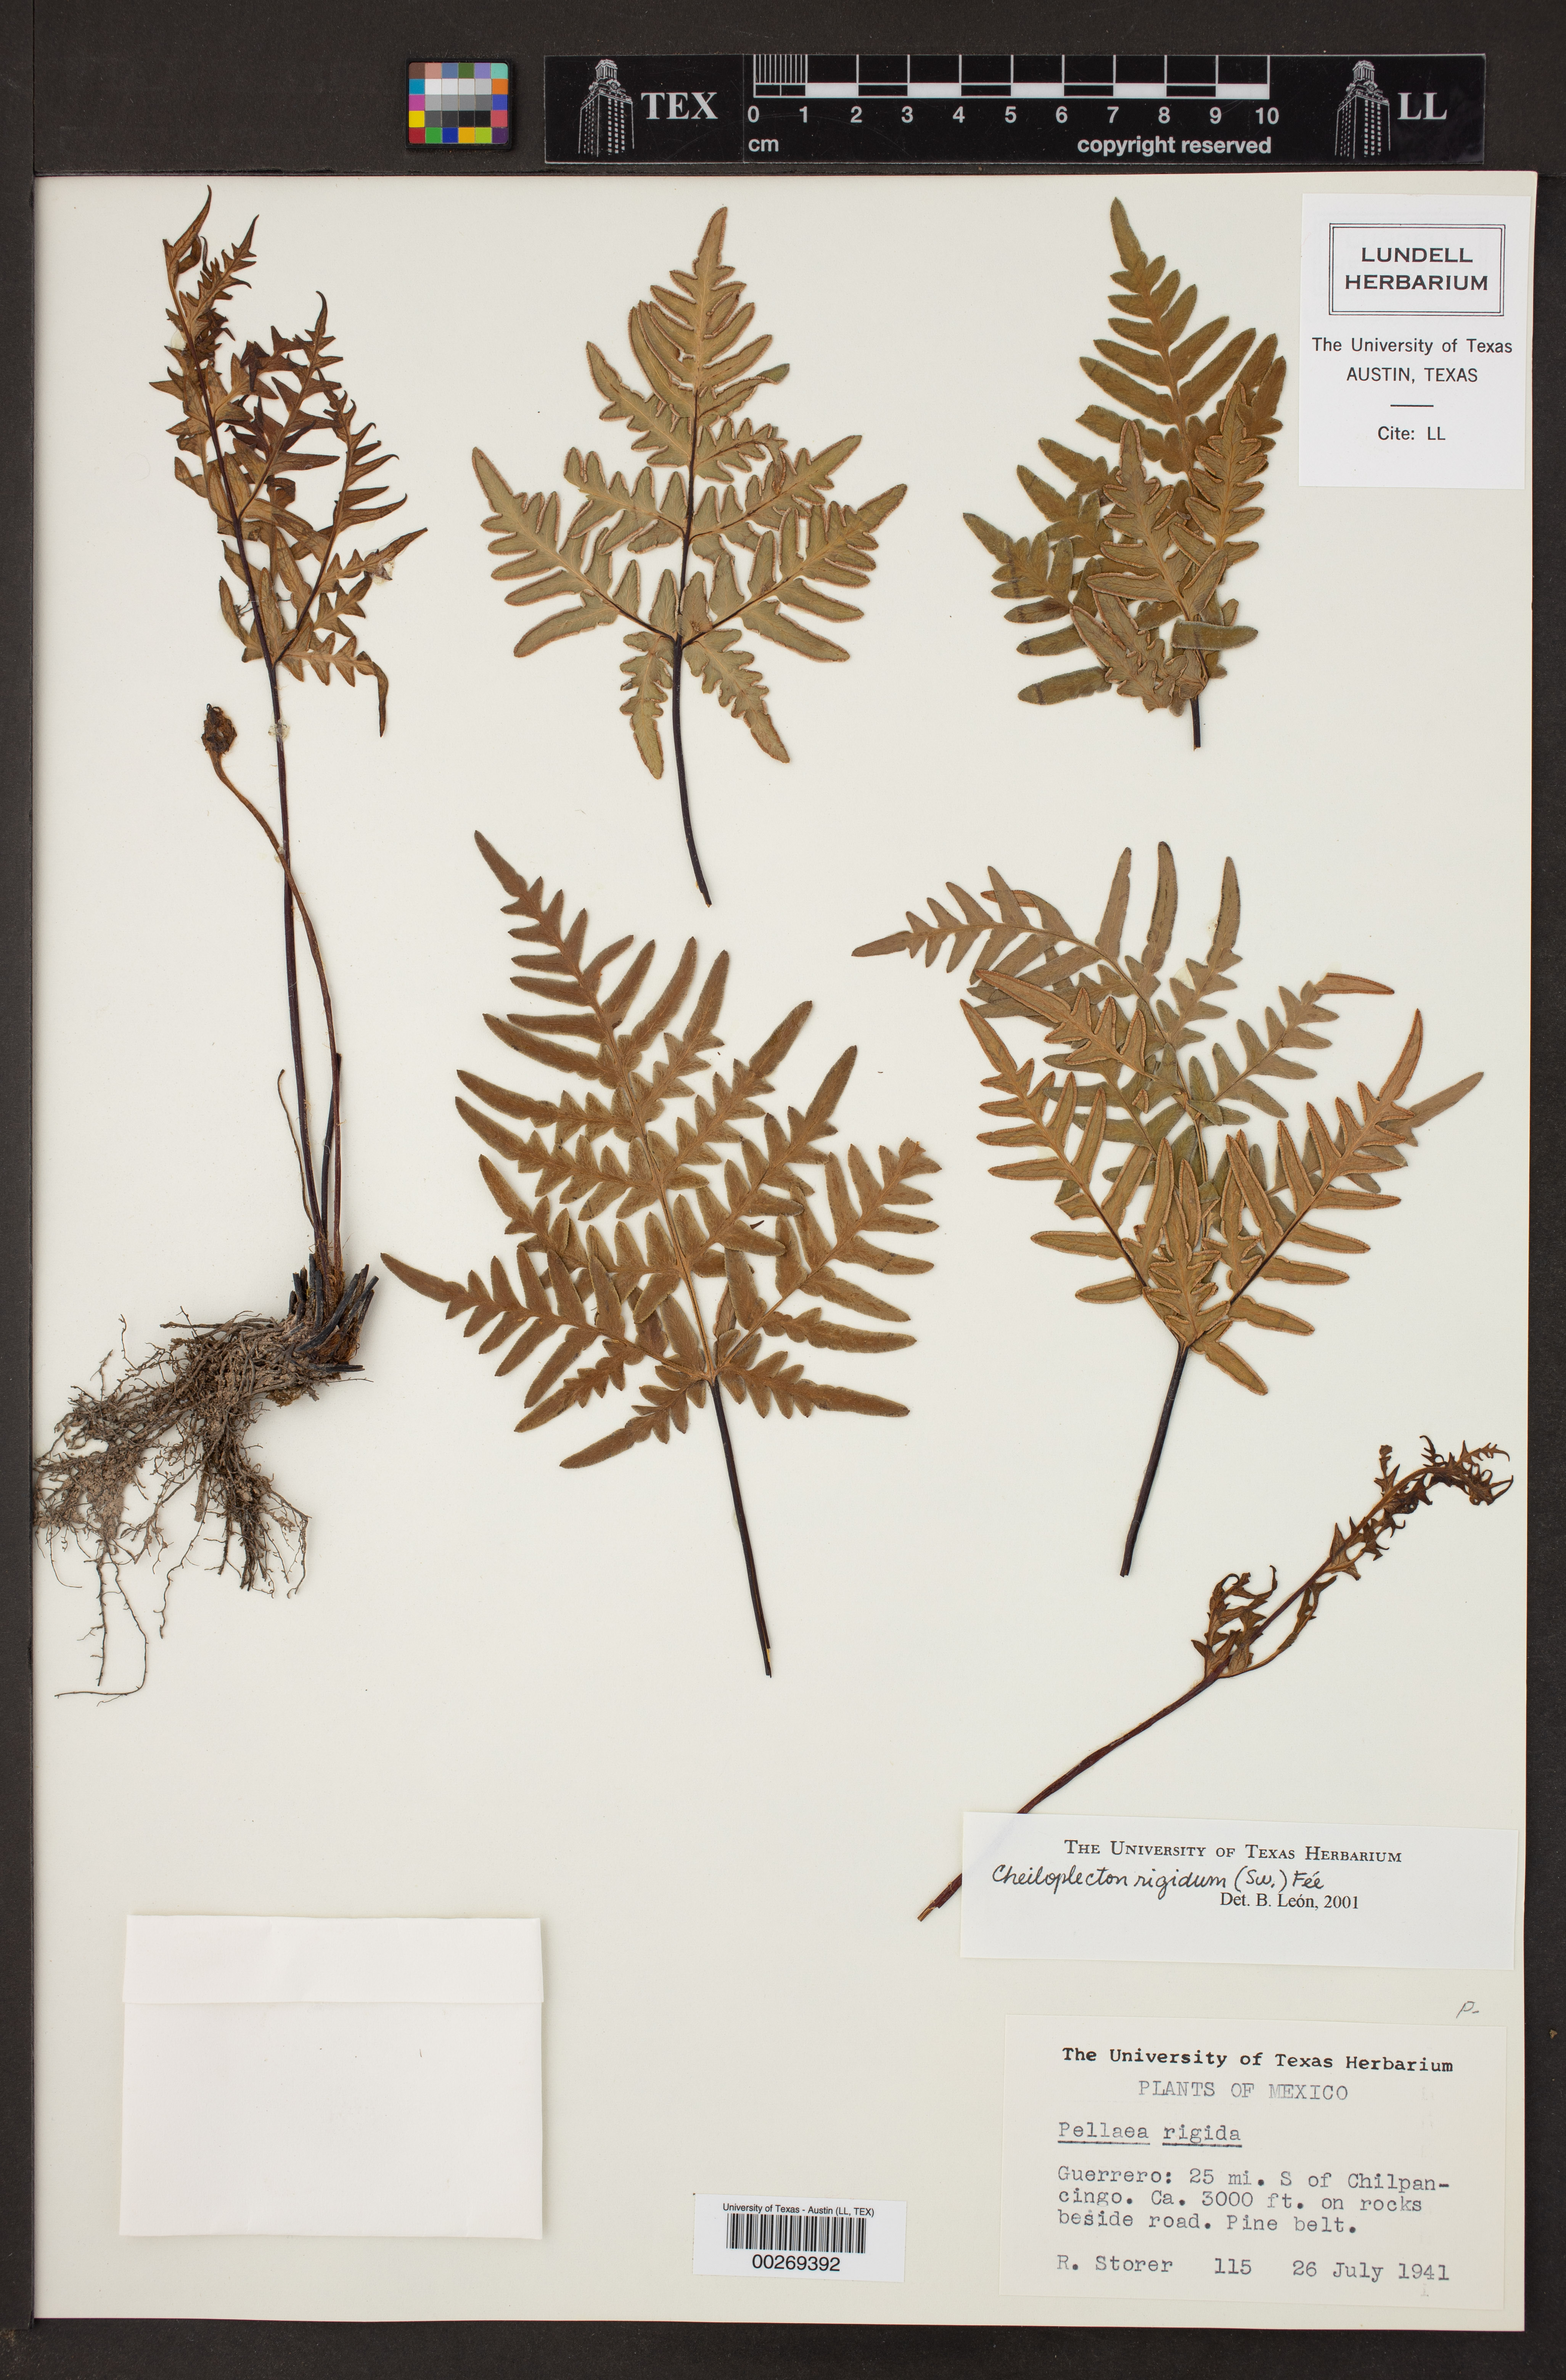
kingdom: Plantae
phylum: Tracheophyta
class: Polypodiopsida
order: Polypodiales
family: Pteridaceae
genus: Cheiloplecton
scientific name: Cheiloplecton rigidum
